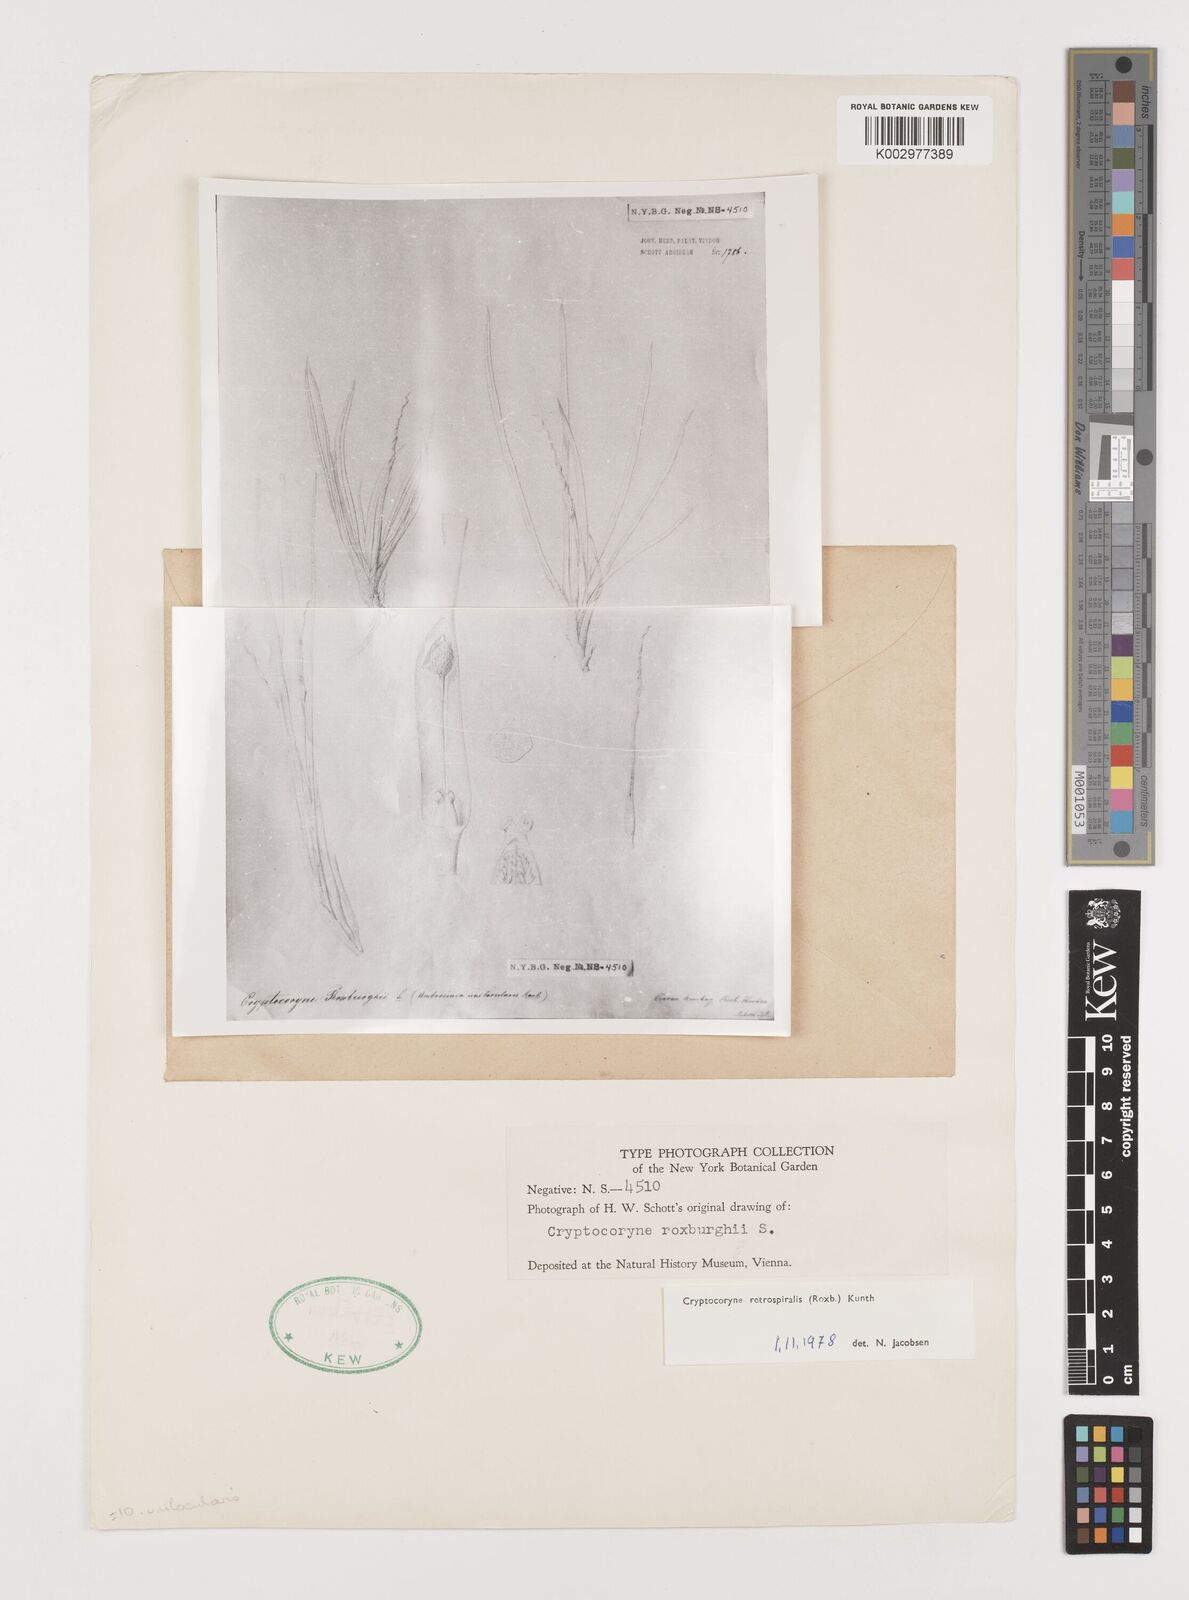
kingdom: Plantae
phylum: Tracheophyta
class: Liliopsida
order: Alismatales
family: Araceae
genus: Cryptocoryne
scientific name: Cryptocoryne retrospiralis
